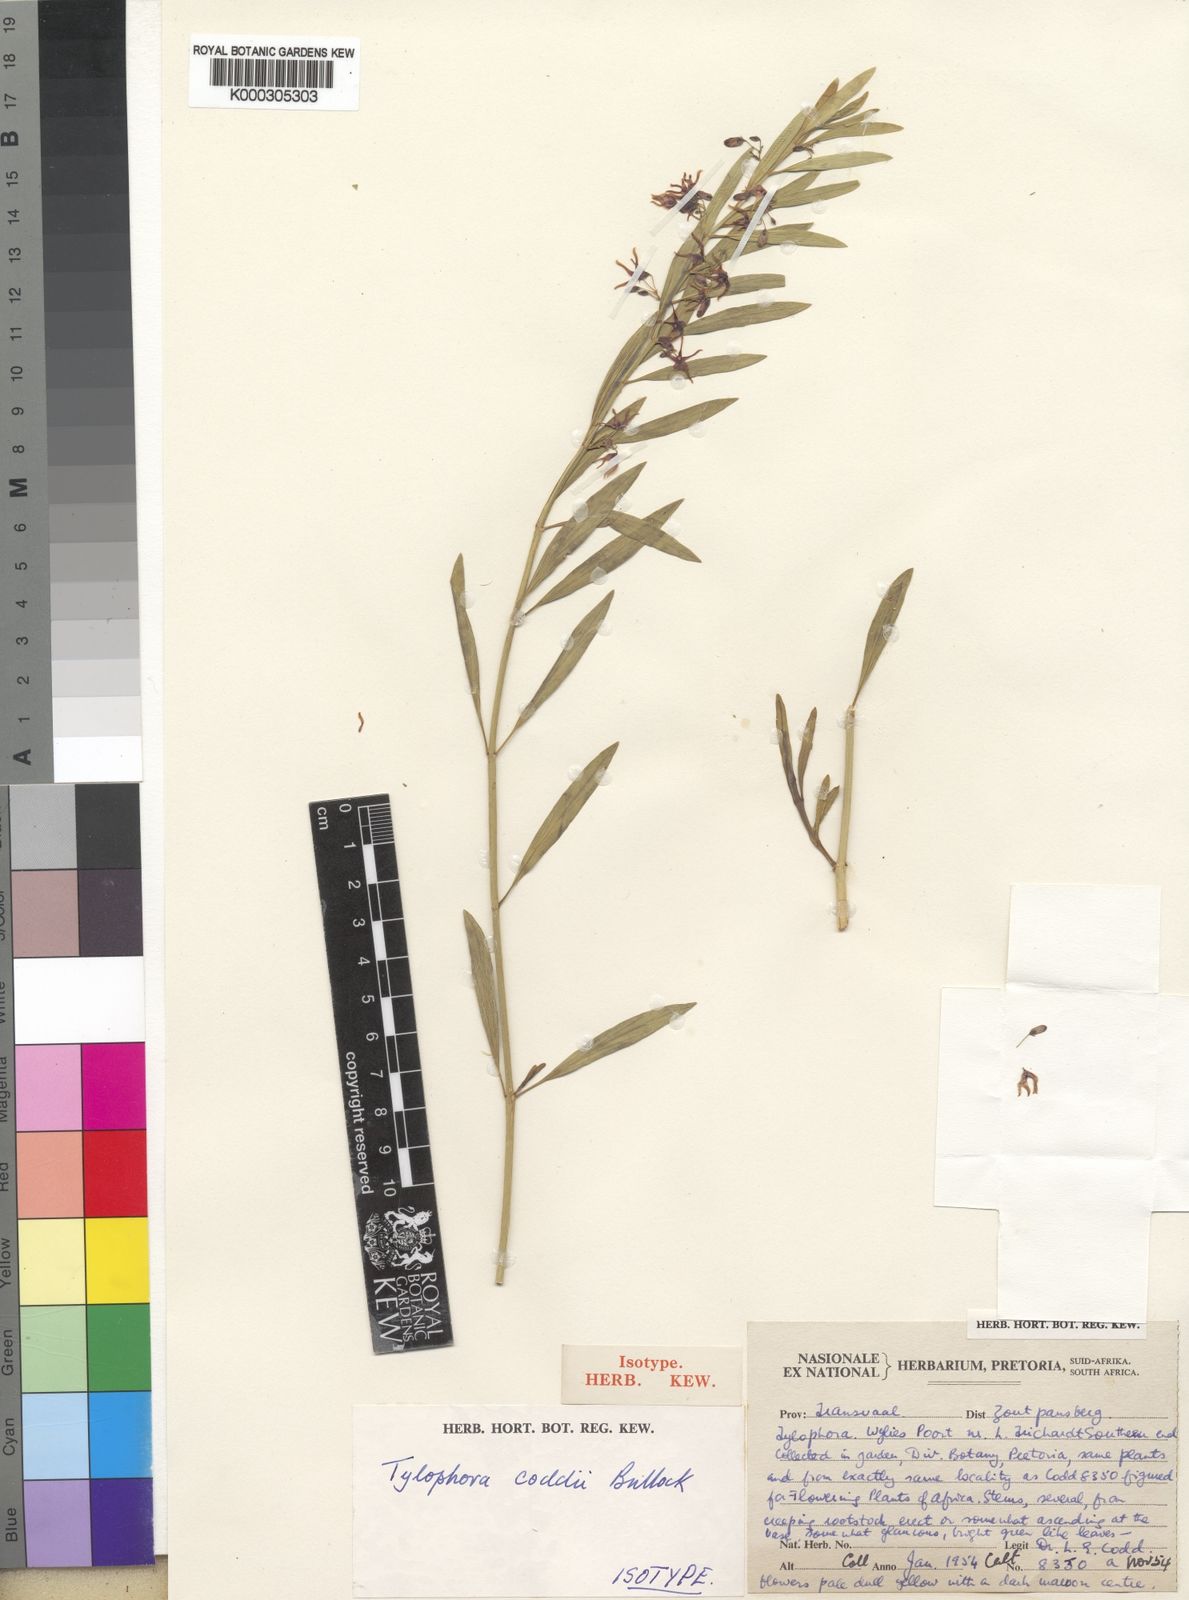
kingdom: Plantae
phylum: Tracheophyta
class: Magnoliopsida
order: Gentianales
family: Apocynaceae
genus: Vincetoxicum
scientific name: Vincetoxicum coddii
